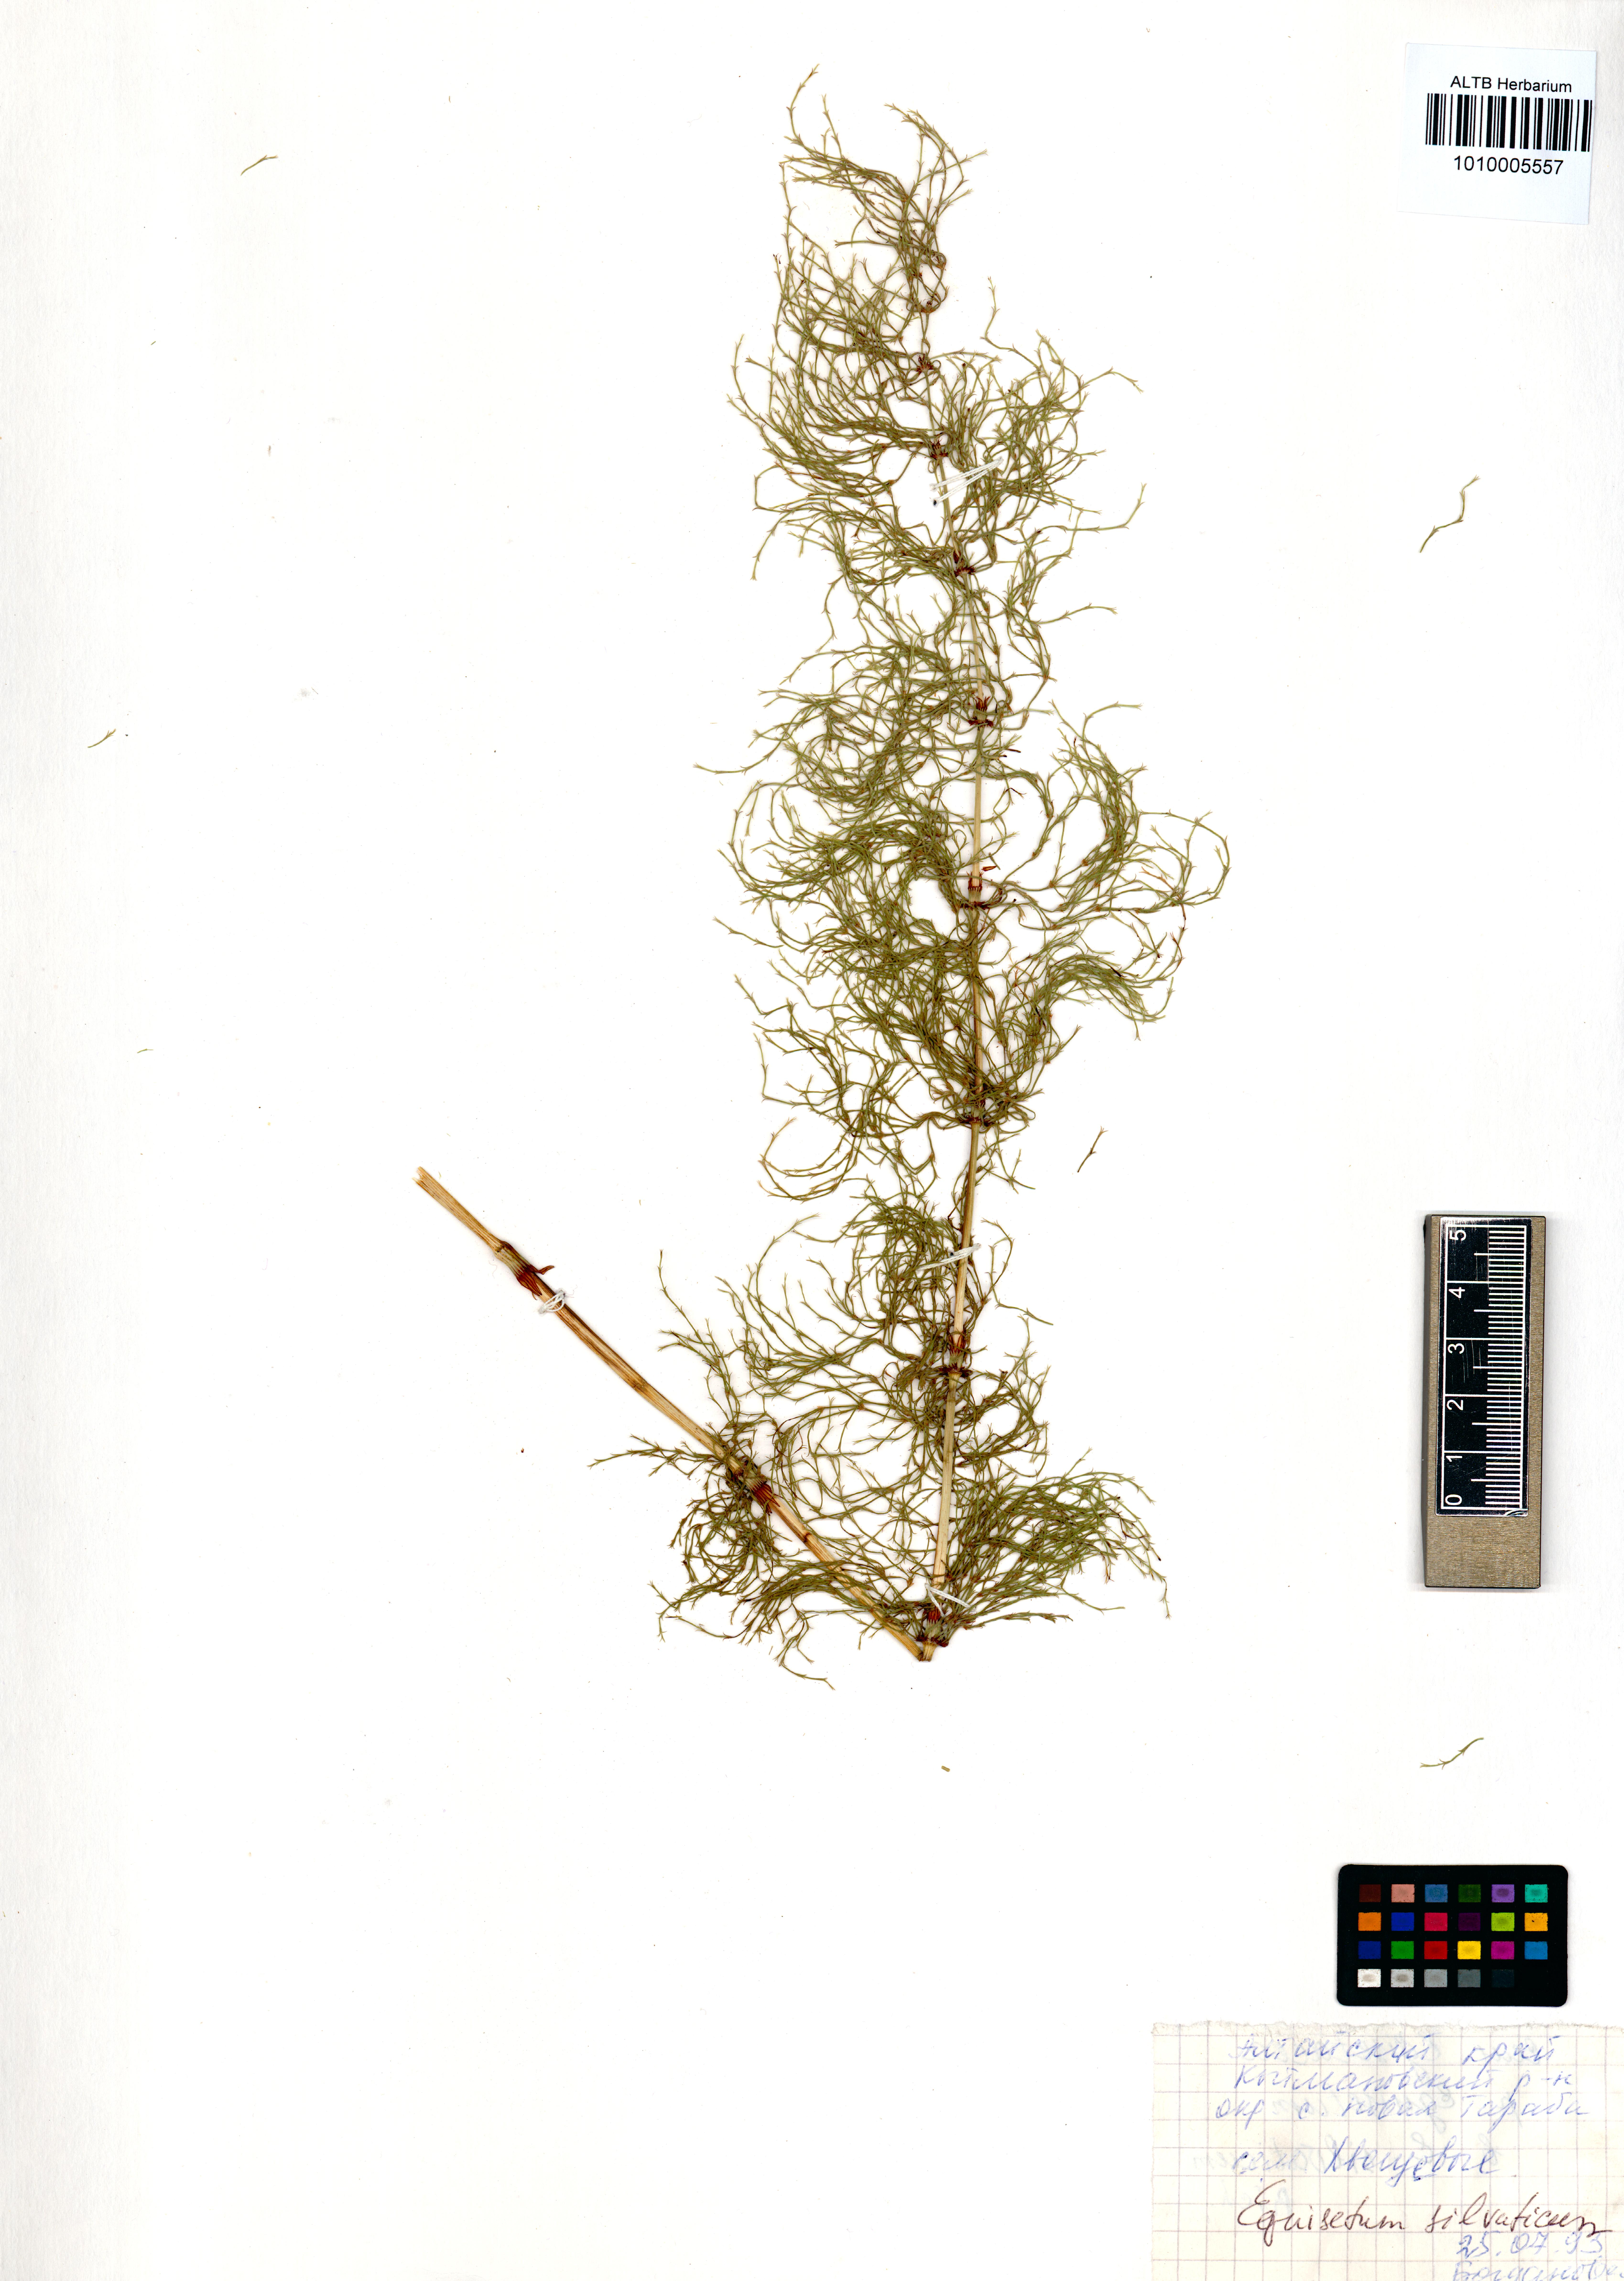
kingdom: Plantae
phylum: Tracheophyta
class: Polypodiopsida
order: Equisetales
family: Equisetaceae
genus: Equisetum
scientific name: Equisetum sylvaticum
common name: Wood horsetail
